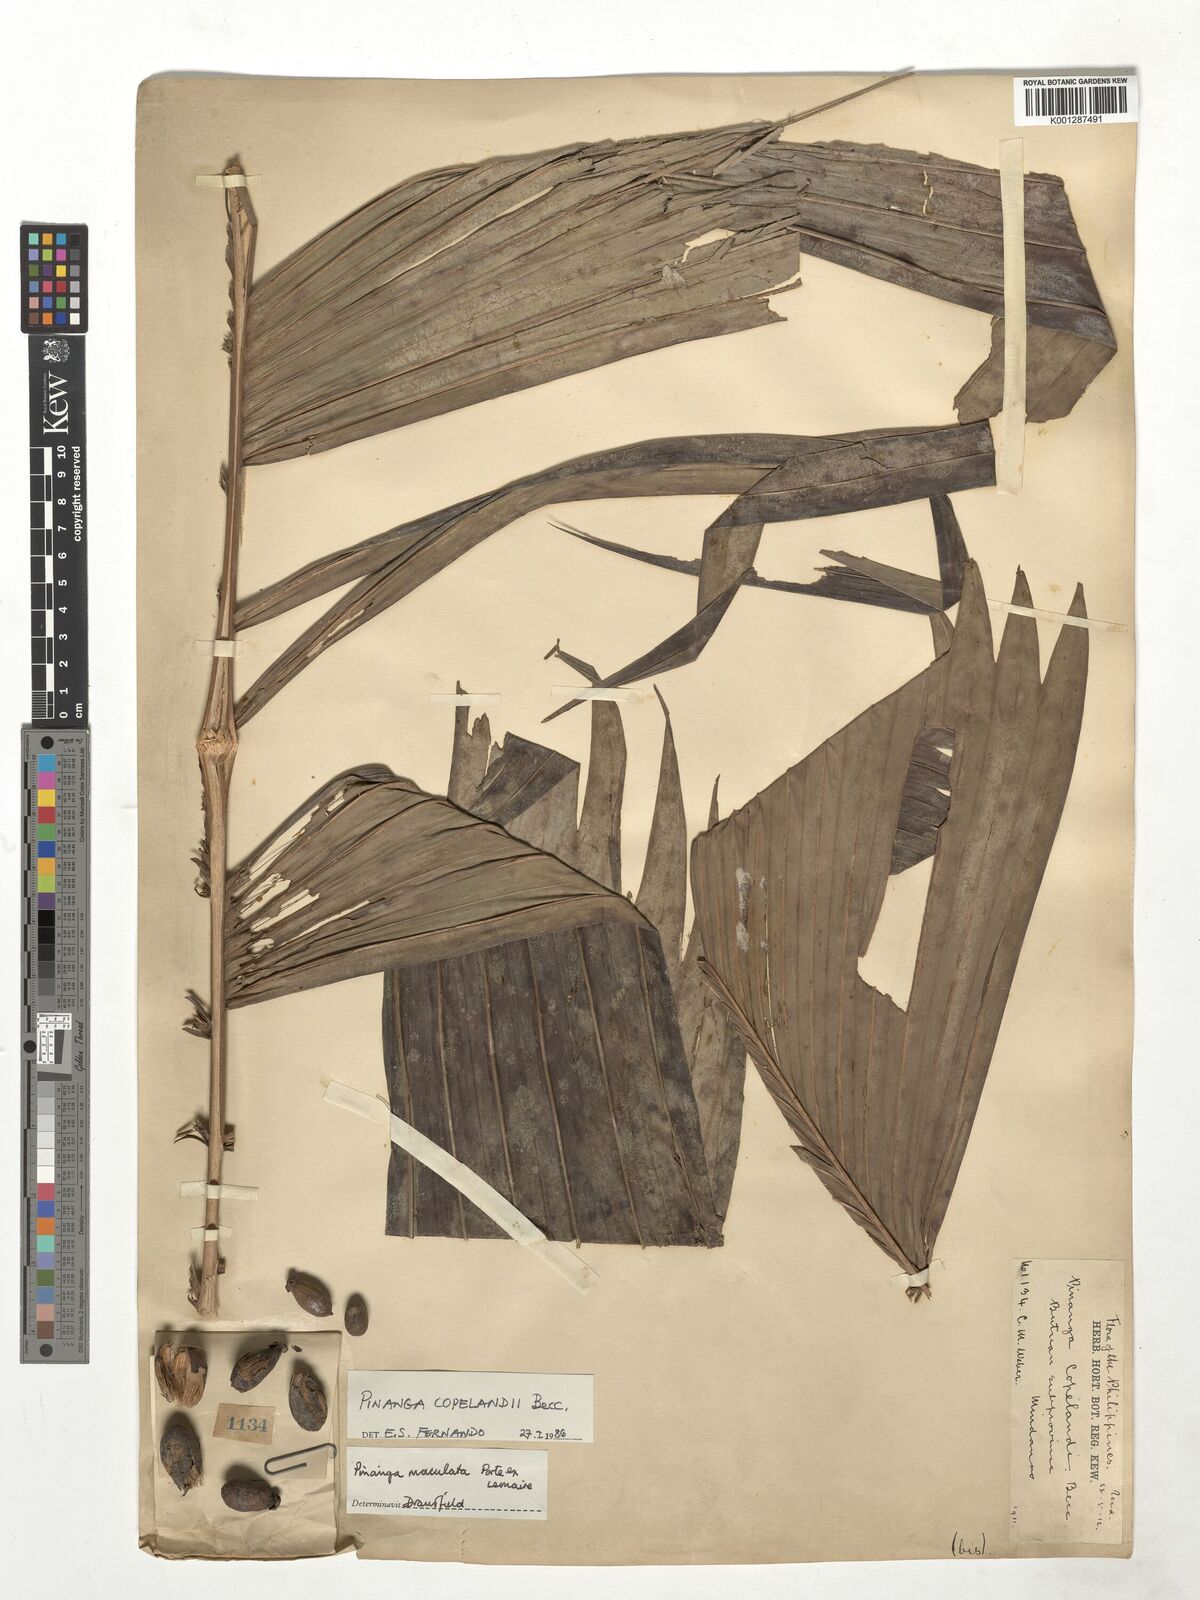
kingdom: Plantae
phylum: Tracheophyta
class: Liliopsida
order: Arecales
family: Arecaceae
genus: Pinanga
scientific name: Pinanga copelandii
